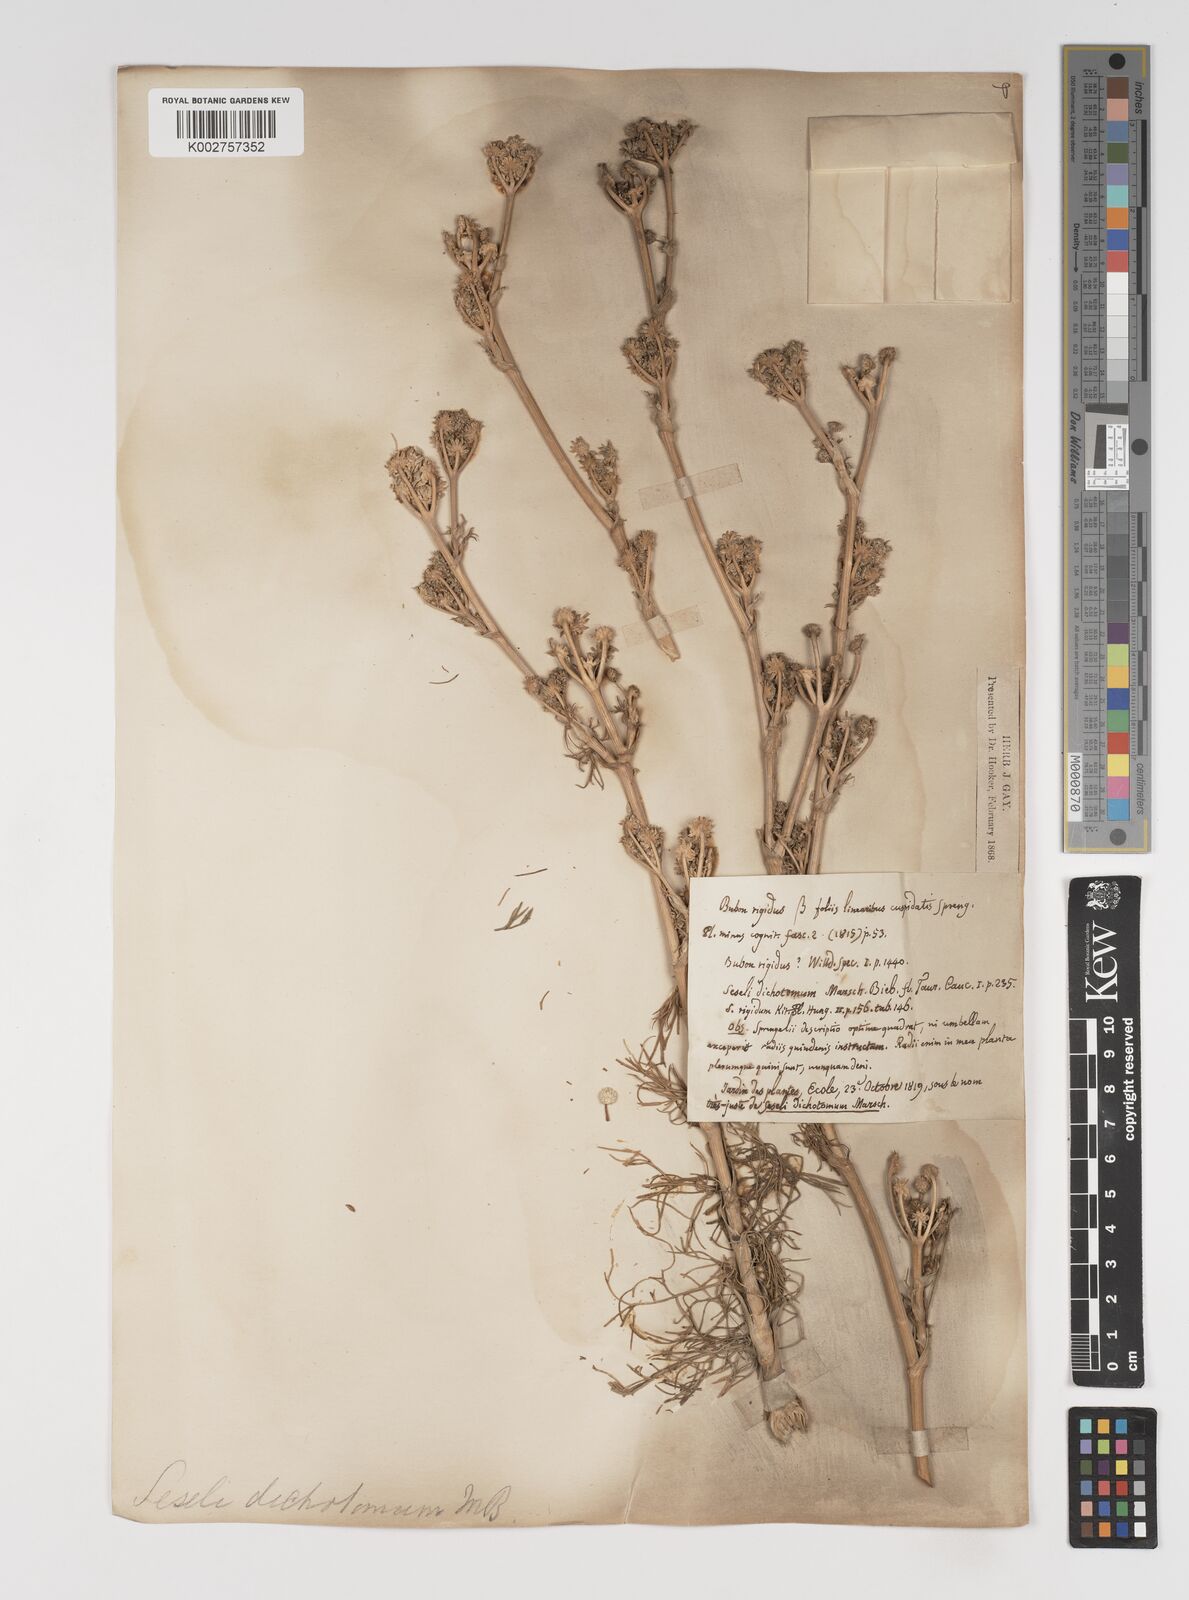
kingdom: Plantae
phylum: Tracheophyta
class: Magnoliopsida
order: Apiales
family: Apiaceae
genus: Hippomarathrum
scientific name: Hippomarathrum dichotomum
